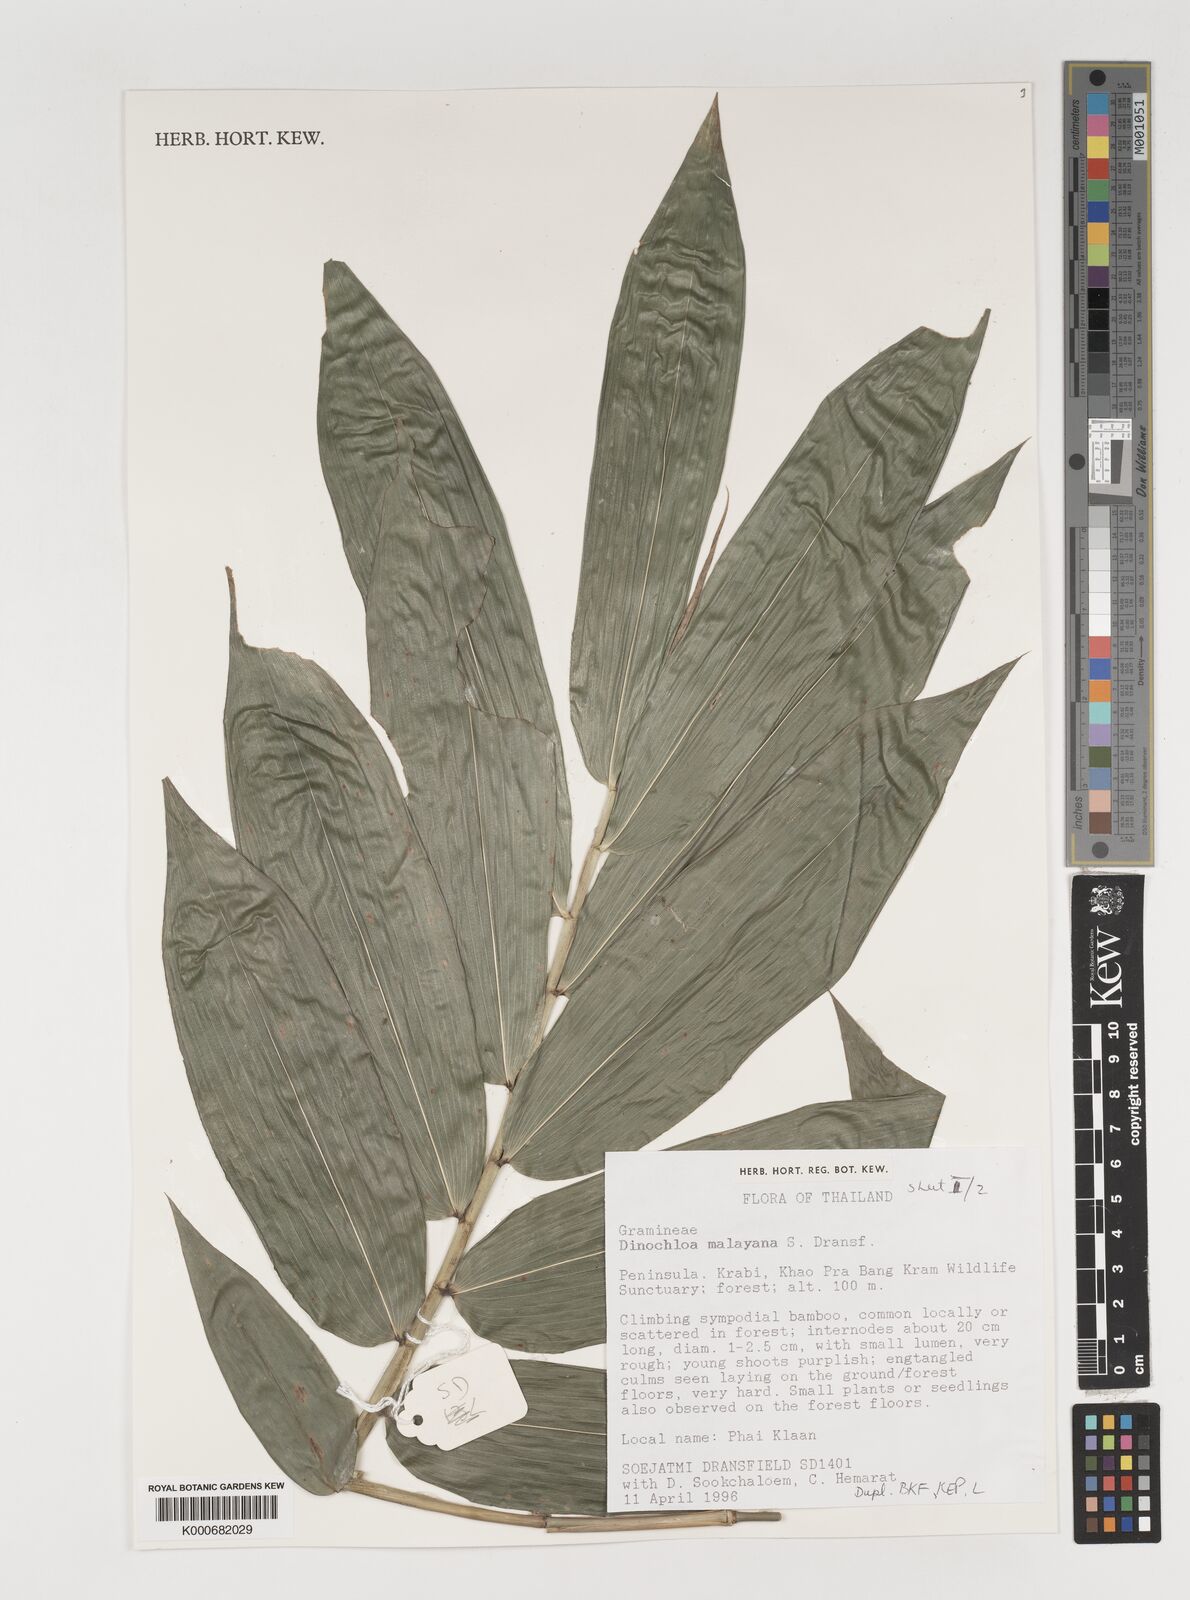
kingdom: Plantae
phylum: Tracheophyta
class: Liliopsida
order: Poales
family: Poaceae
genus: Dinochloa
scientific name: Dinochloa malayana
